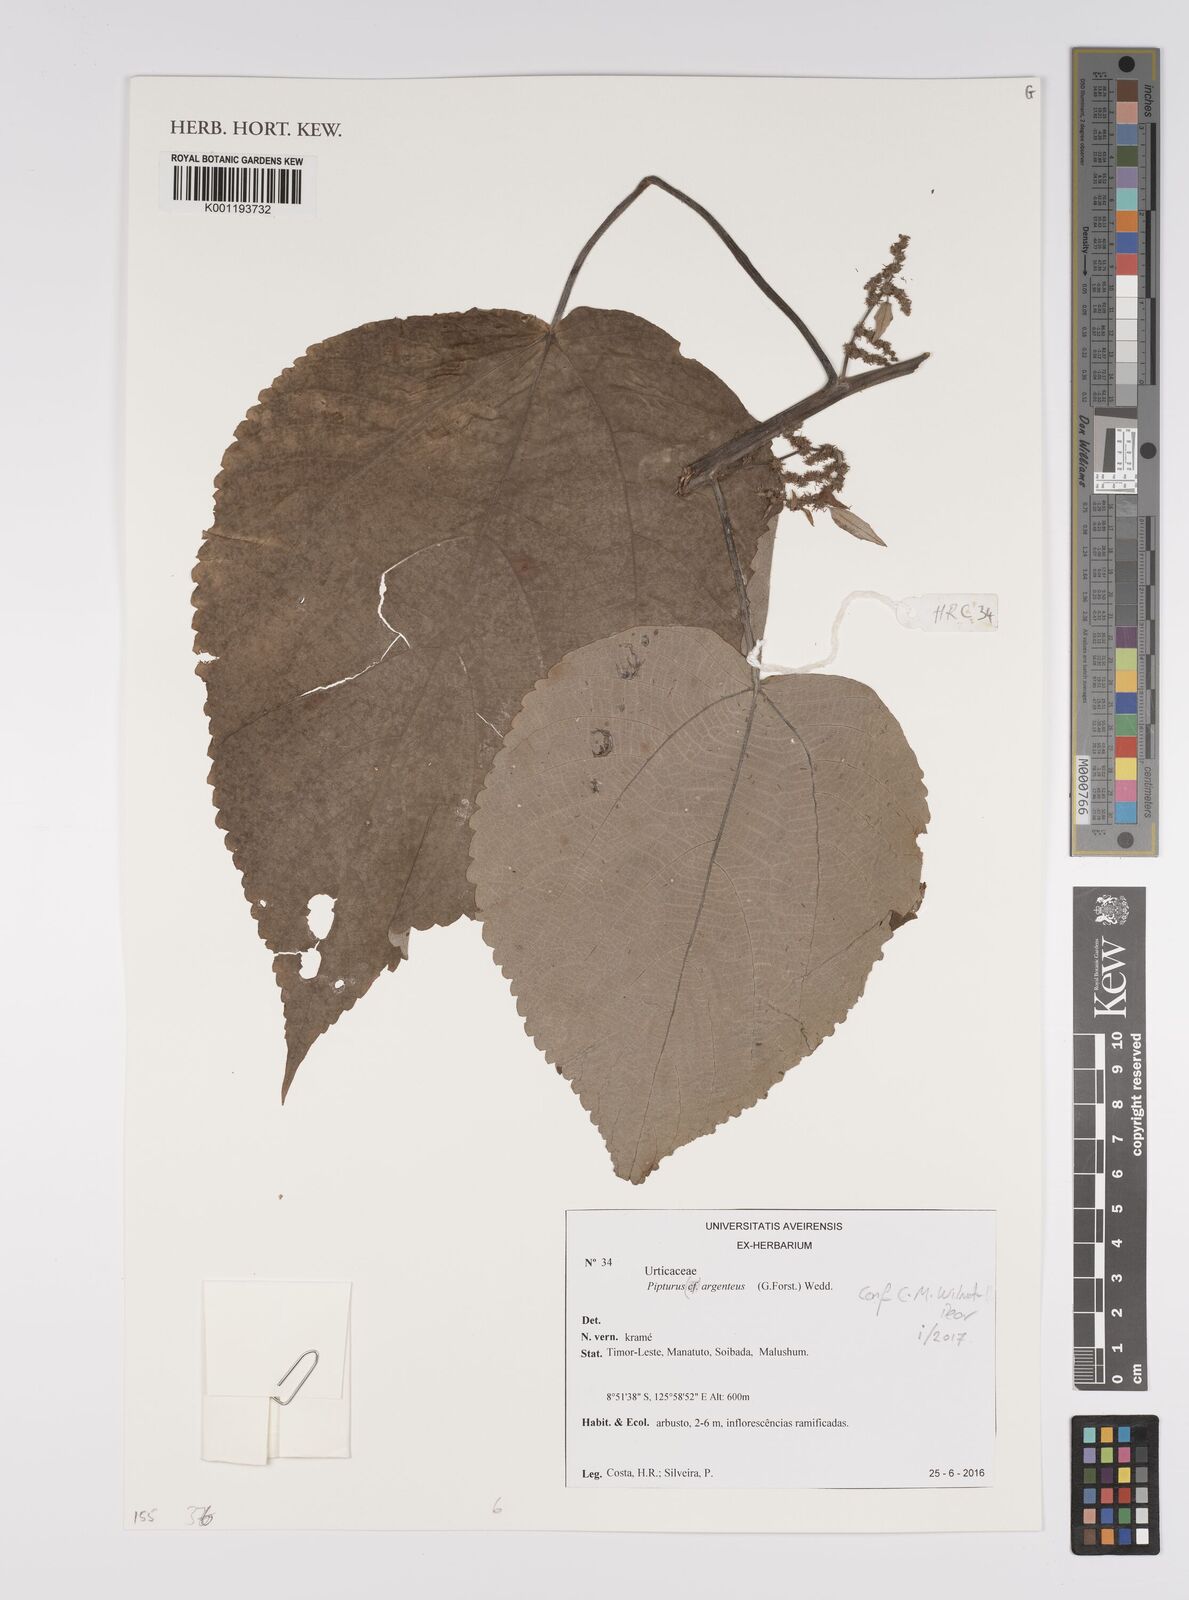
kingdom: Plantae
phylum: Tracheophyta
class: Magnoliopsida
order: Rosales
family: Urticaceae
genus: Pipturus
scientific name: Pipturus argenteus
